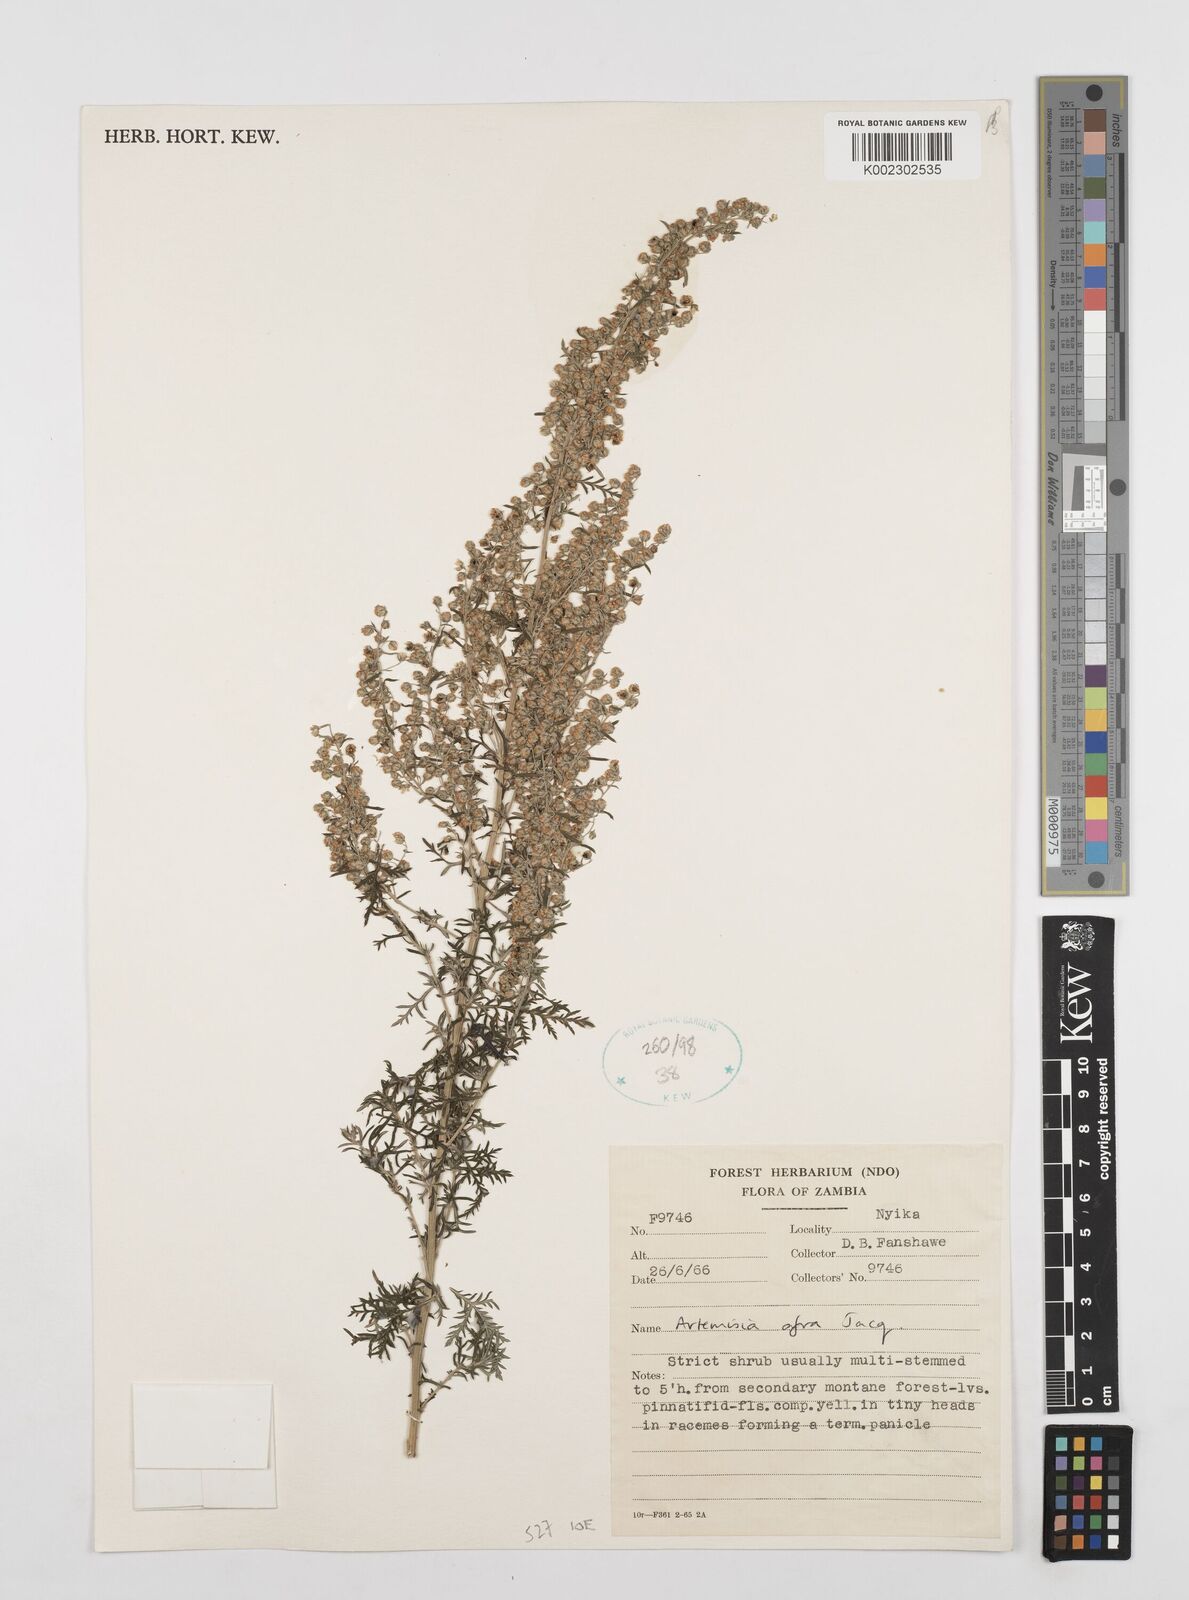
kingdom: Plantae
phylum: Tracheophyta
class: Magnoliopsida
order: Asterales
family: Asteraceae
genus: Artemisia
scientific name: Artemisia afra
